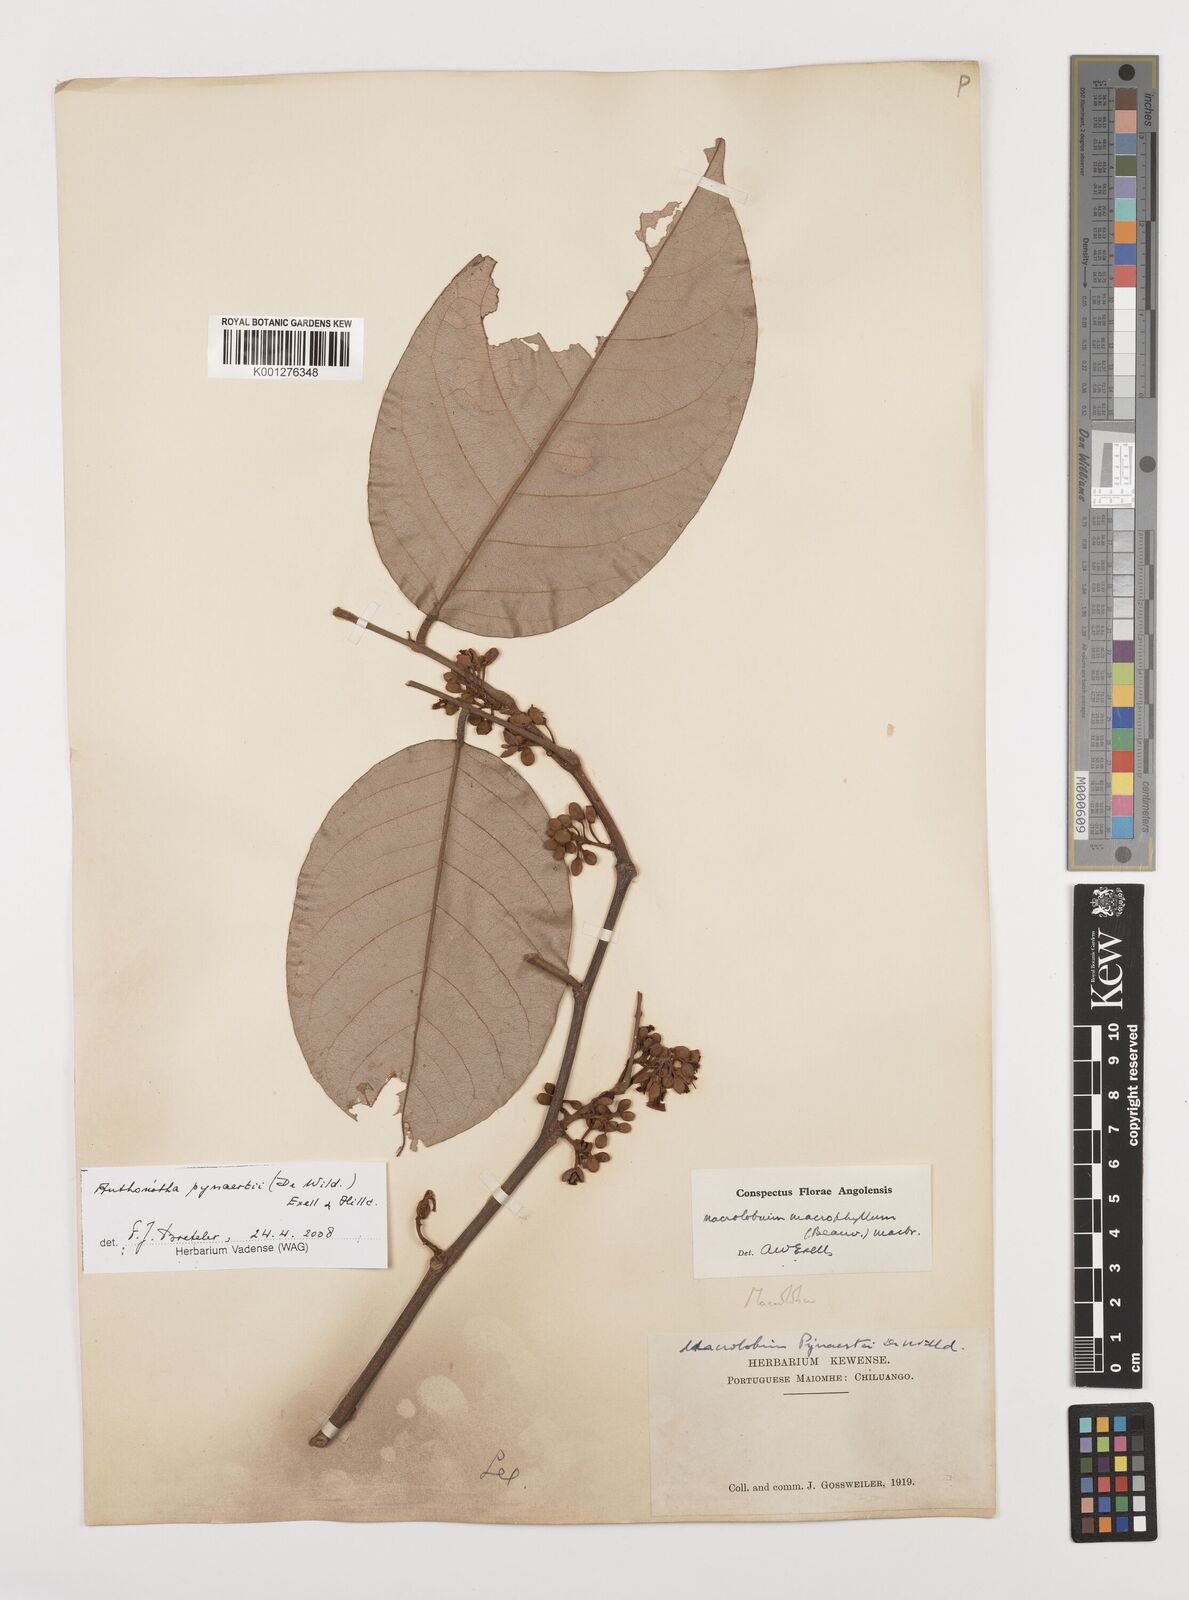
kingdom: Plantae
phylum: Tracheophyta
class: Magnoliopsida
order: Fabales
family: Fabaceae
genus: Anthonotha
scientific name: Anthonotha pynaertii
